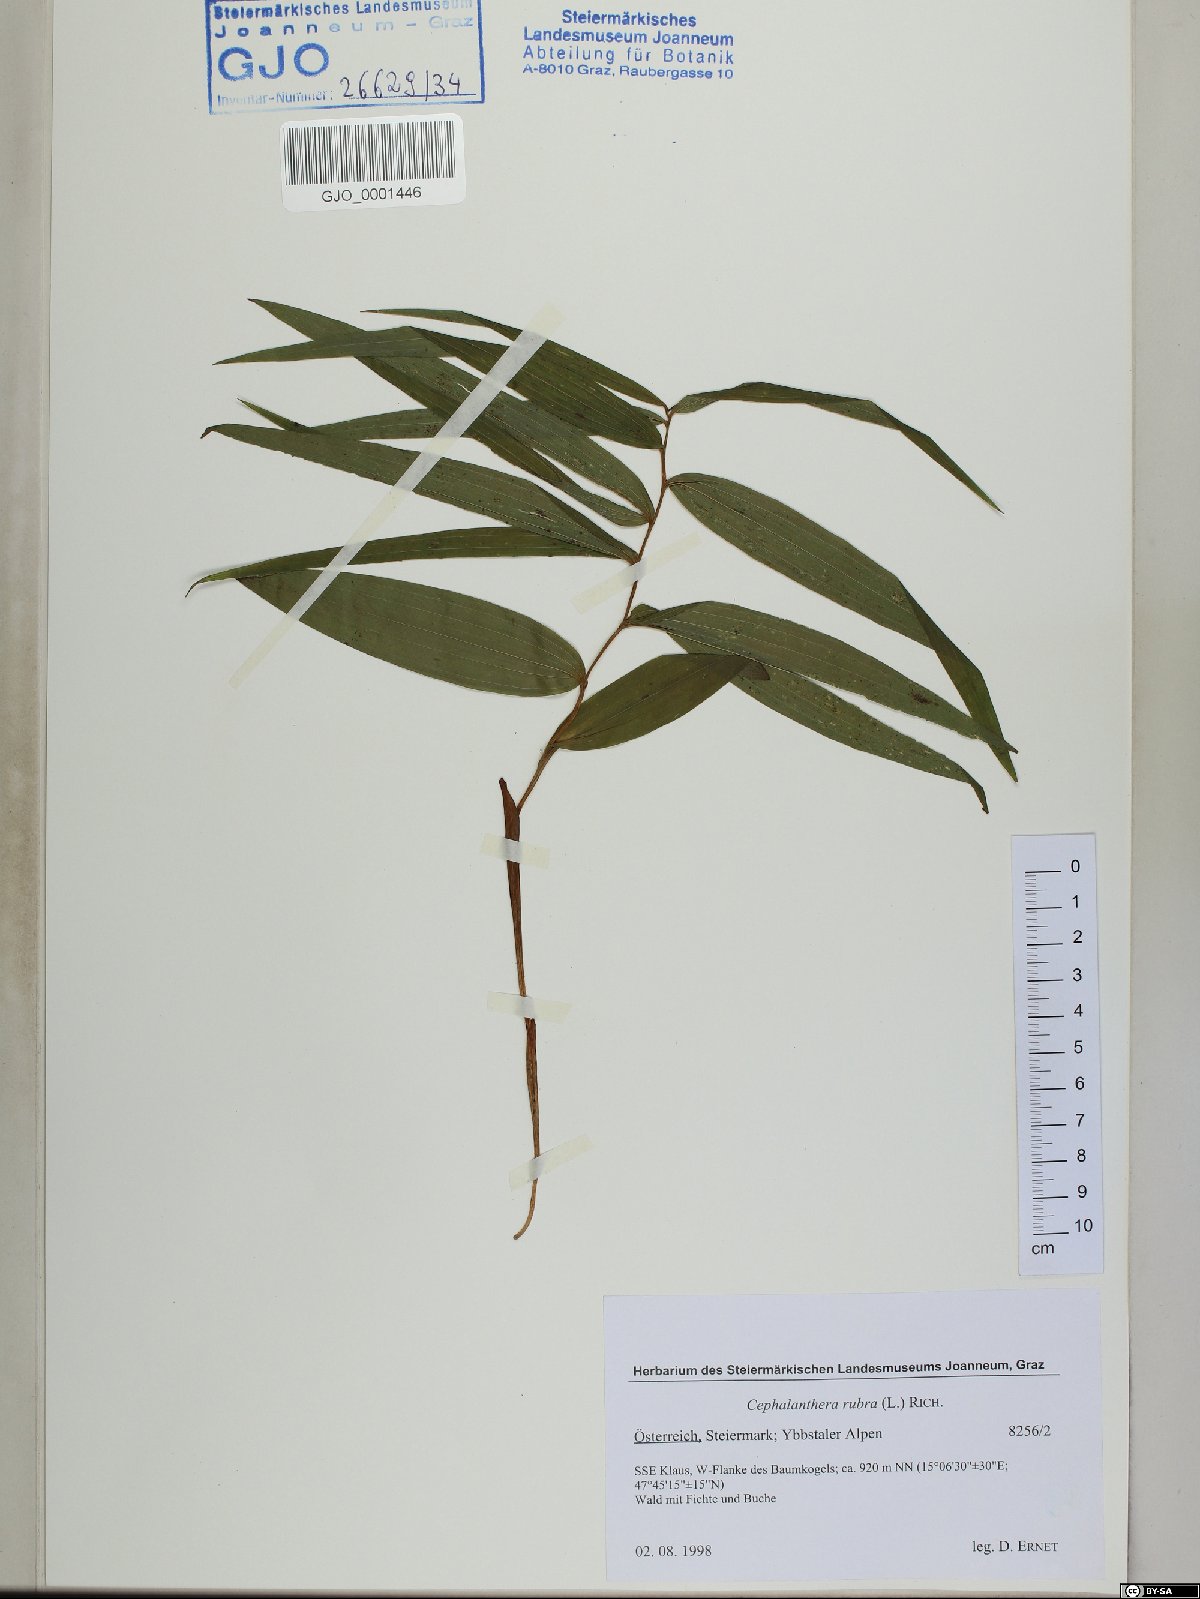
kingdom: Plantae
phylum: Tracheophyta
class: Liliopsida
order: Asparagales
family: Orchidaceae
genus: Cephalanthera
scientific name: Cephalanthera rubra
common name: Red helleborine
